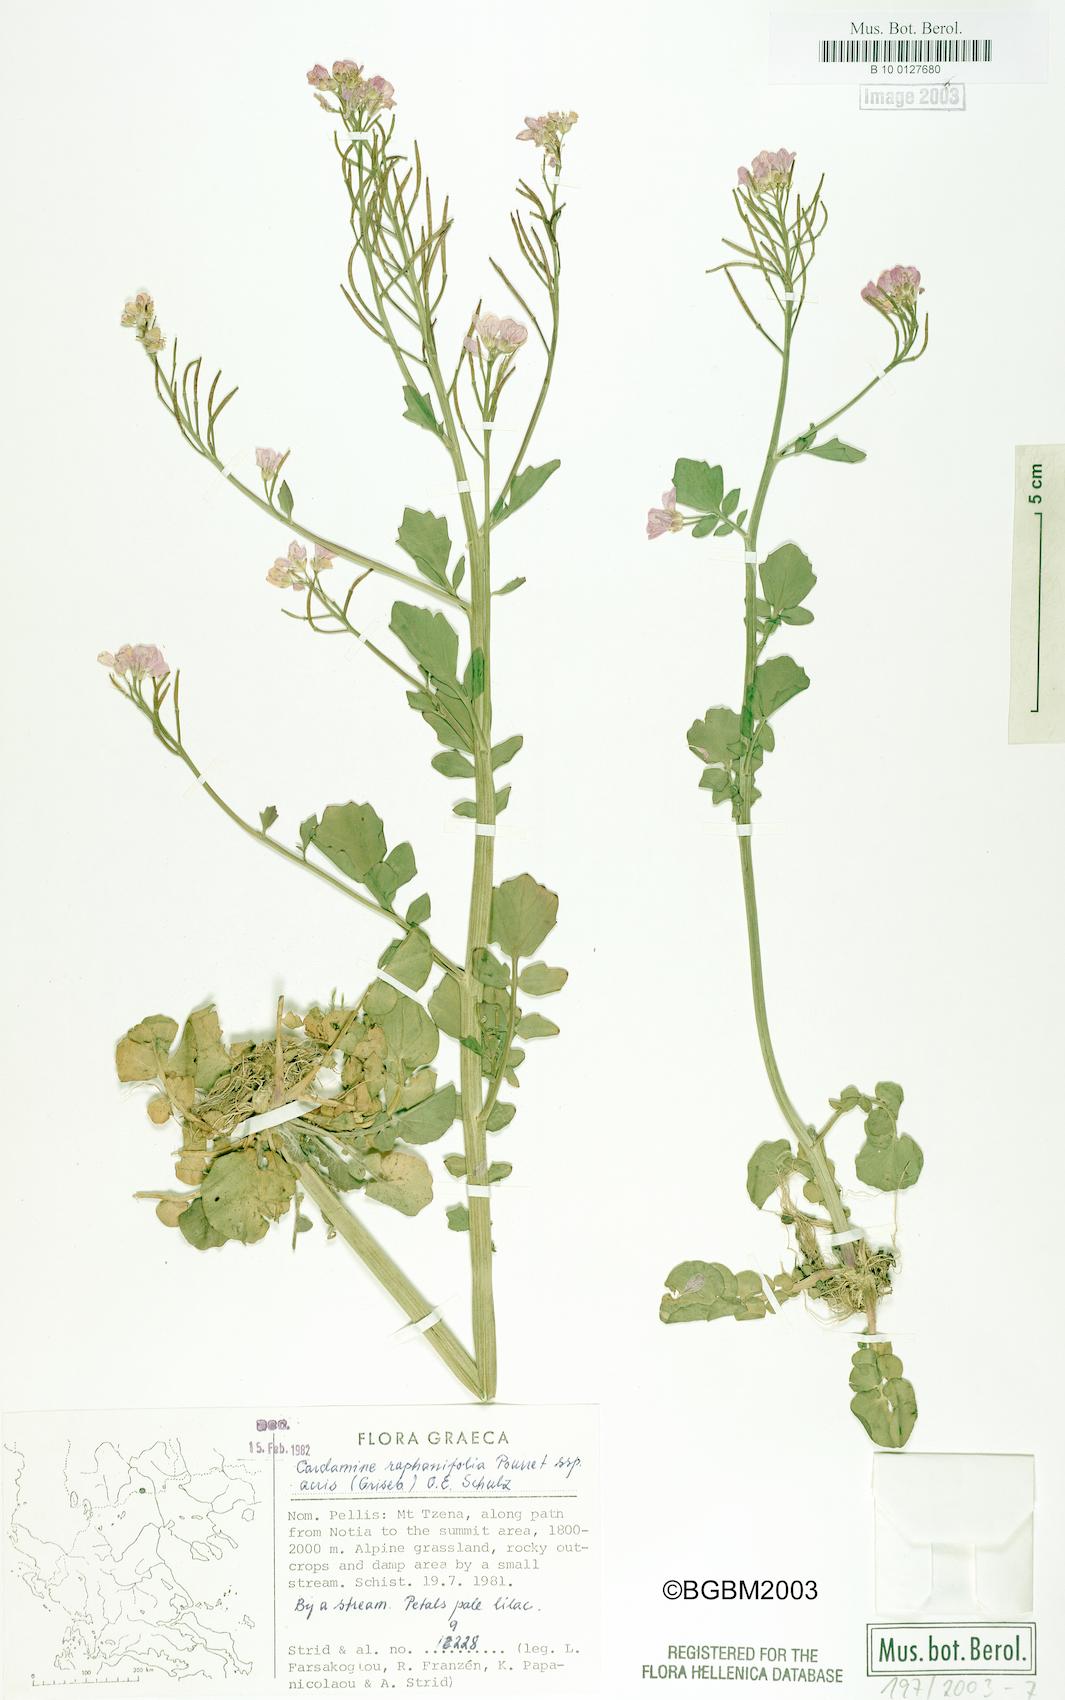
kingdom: Plantae
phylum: Tracheophyta
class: Magnoliopsida
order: Brassicales
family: Brassicaceae
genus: Cardamine
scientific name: Cardamine raphanifolia
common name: Greater cuckooflower
